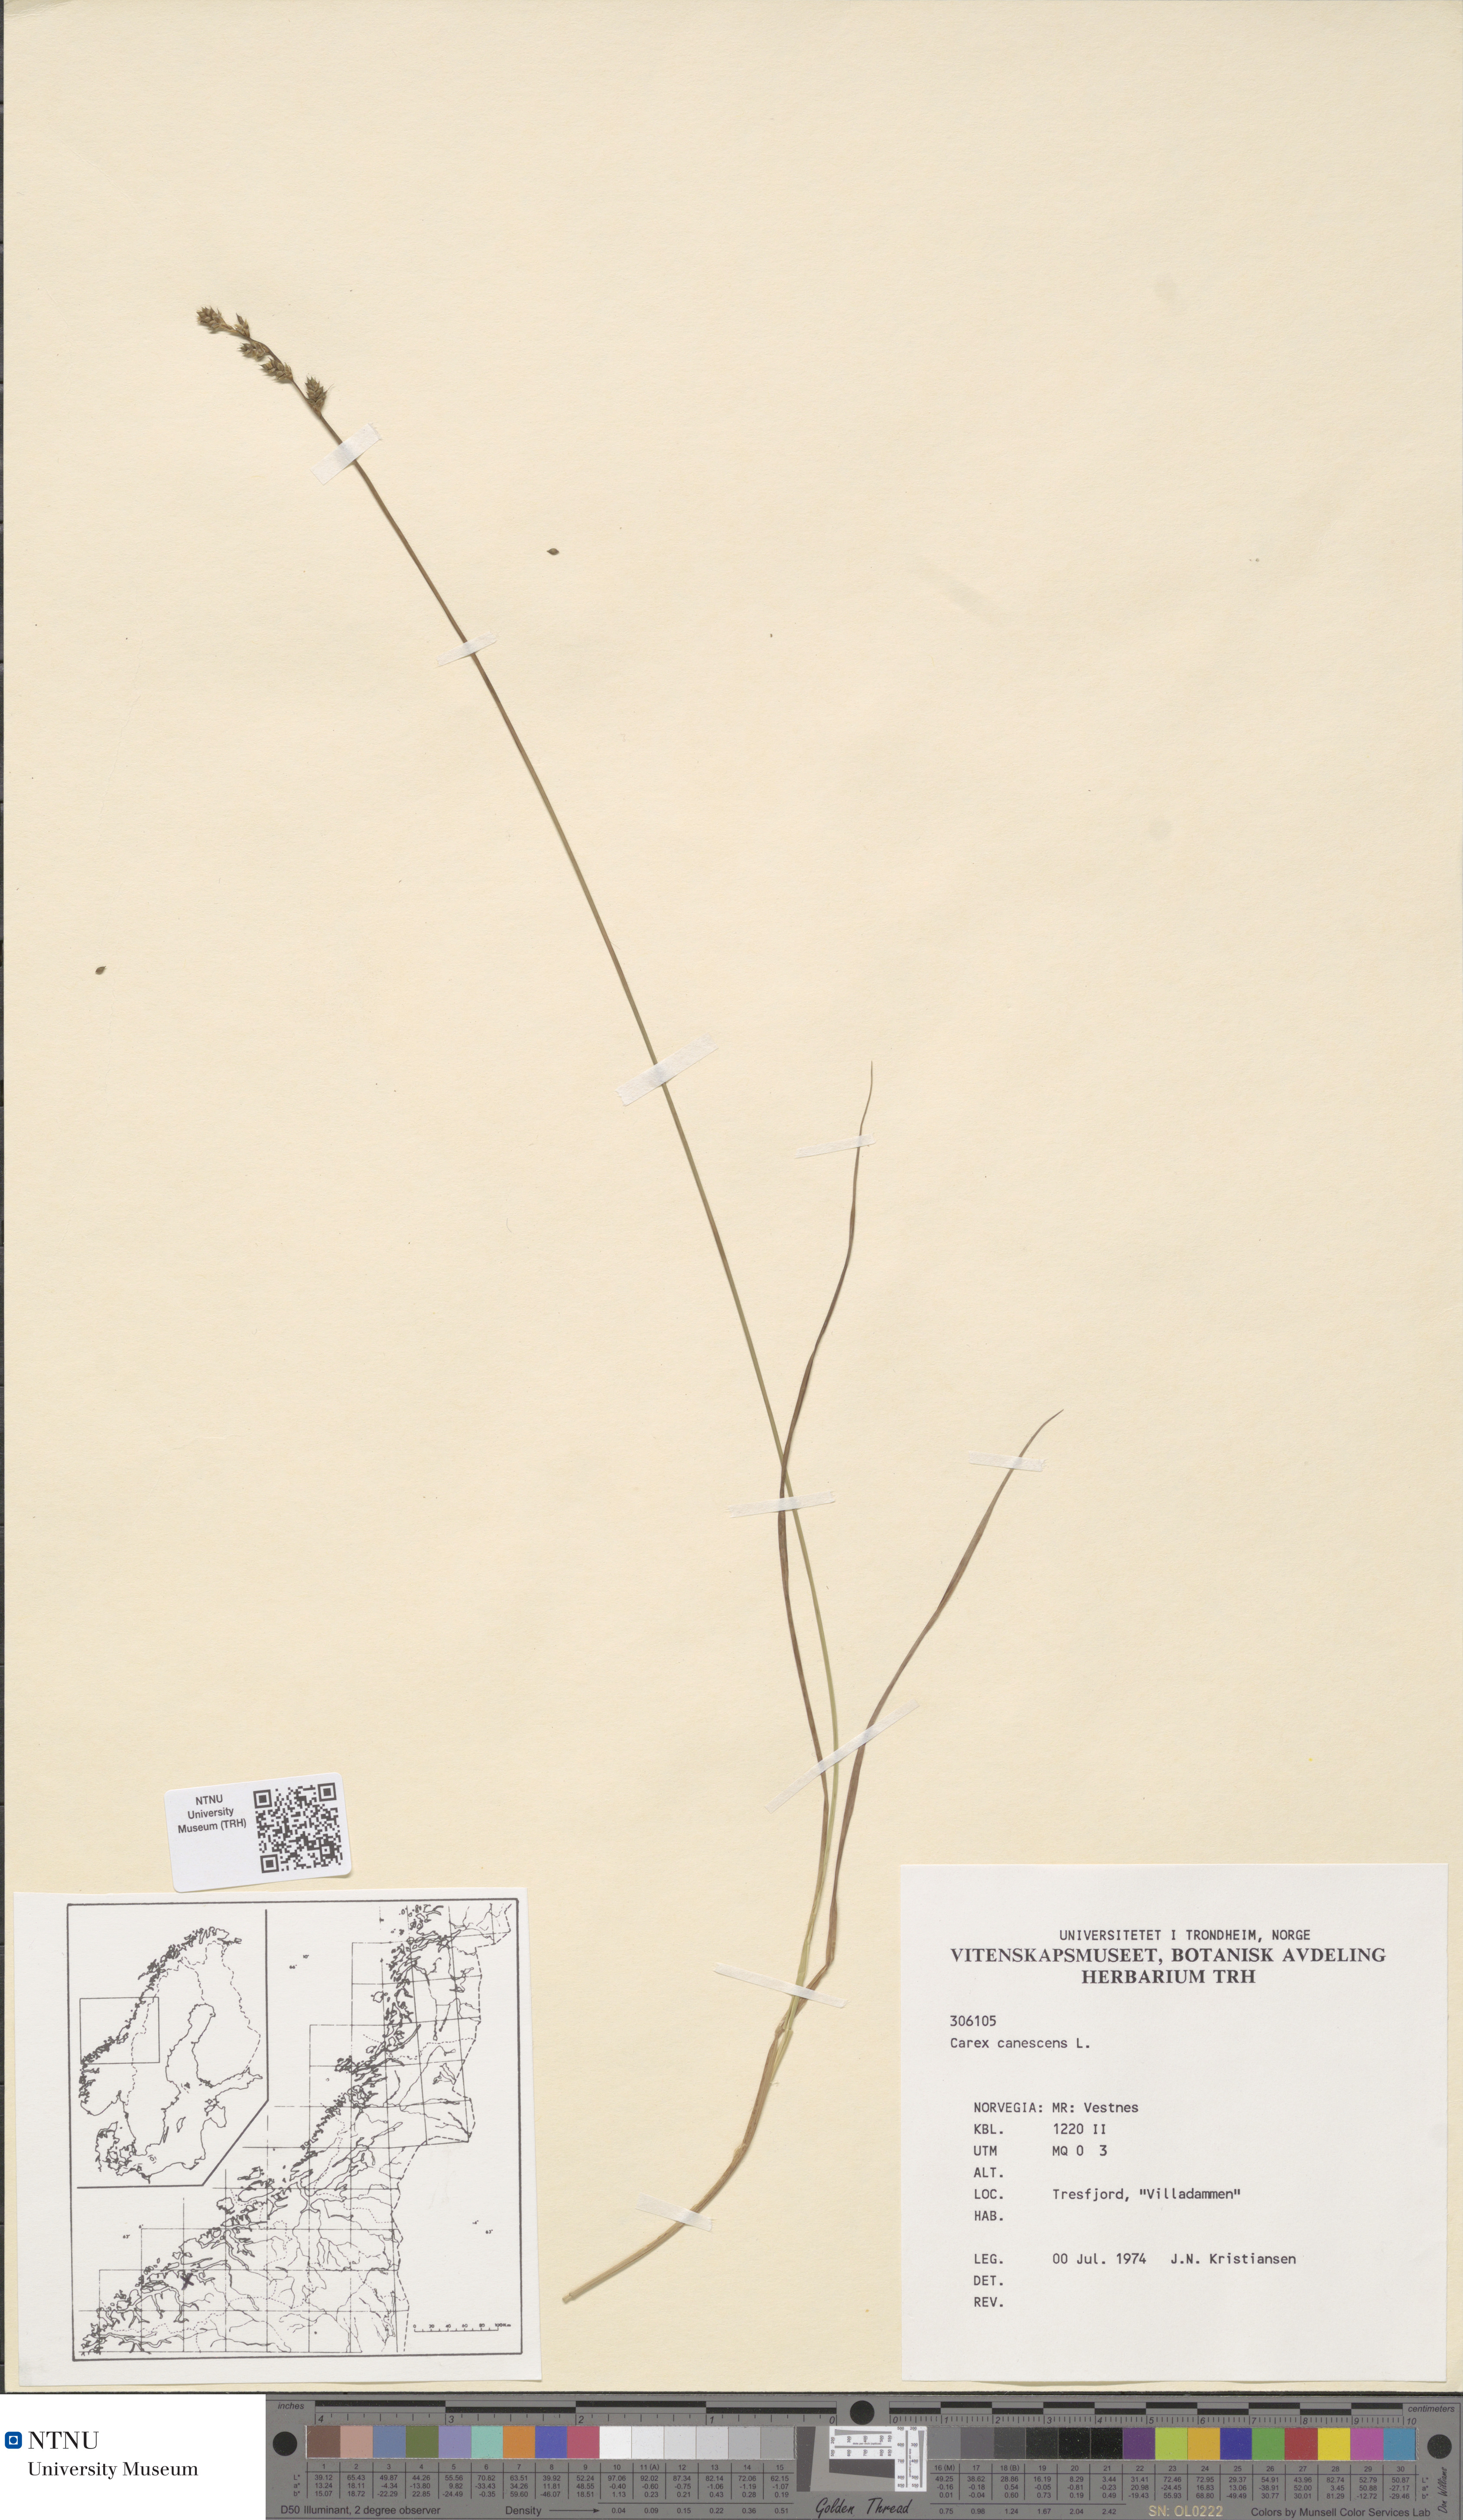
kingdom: Plantae
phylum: Tracheophyta
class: Liliopsida
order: Poales
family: Cyperaceae
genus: Carex
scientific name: Carex canescens
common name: White sedge
